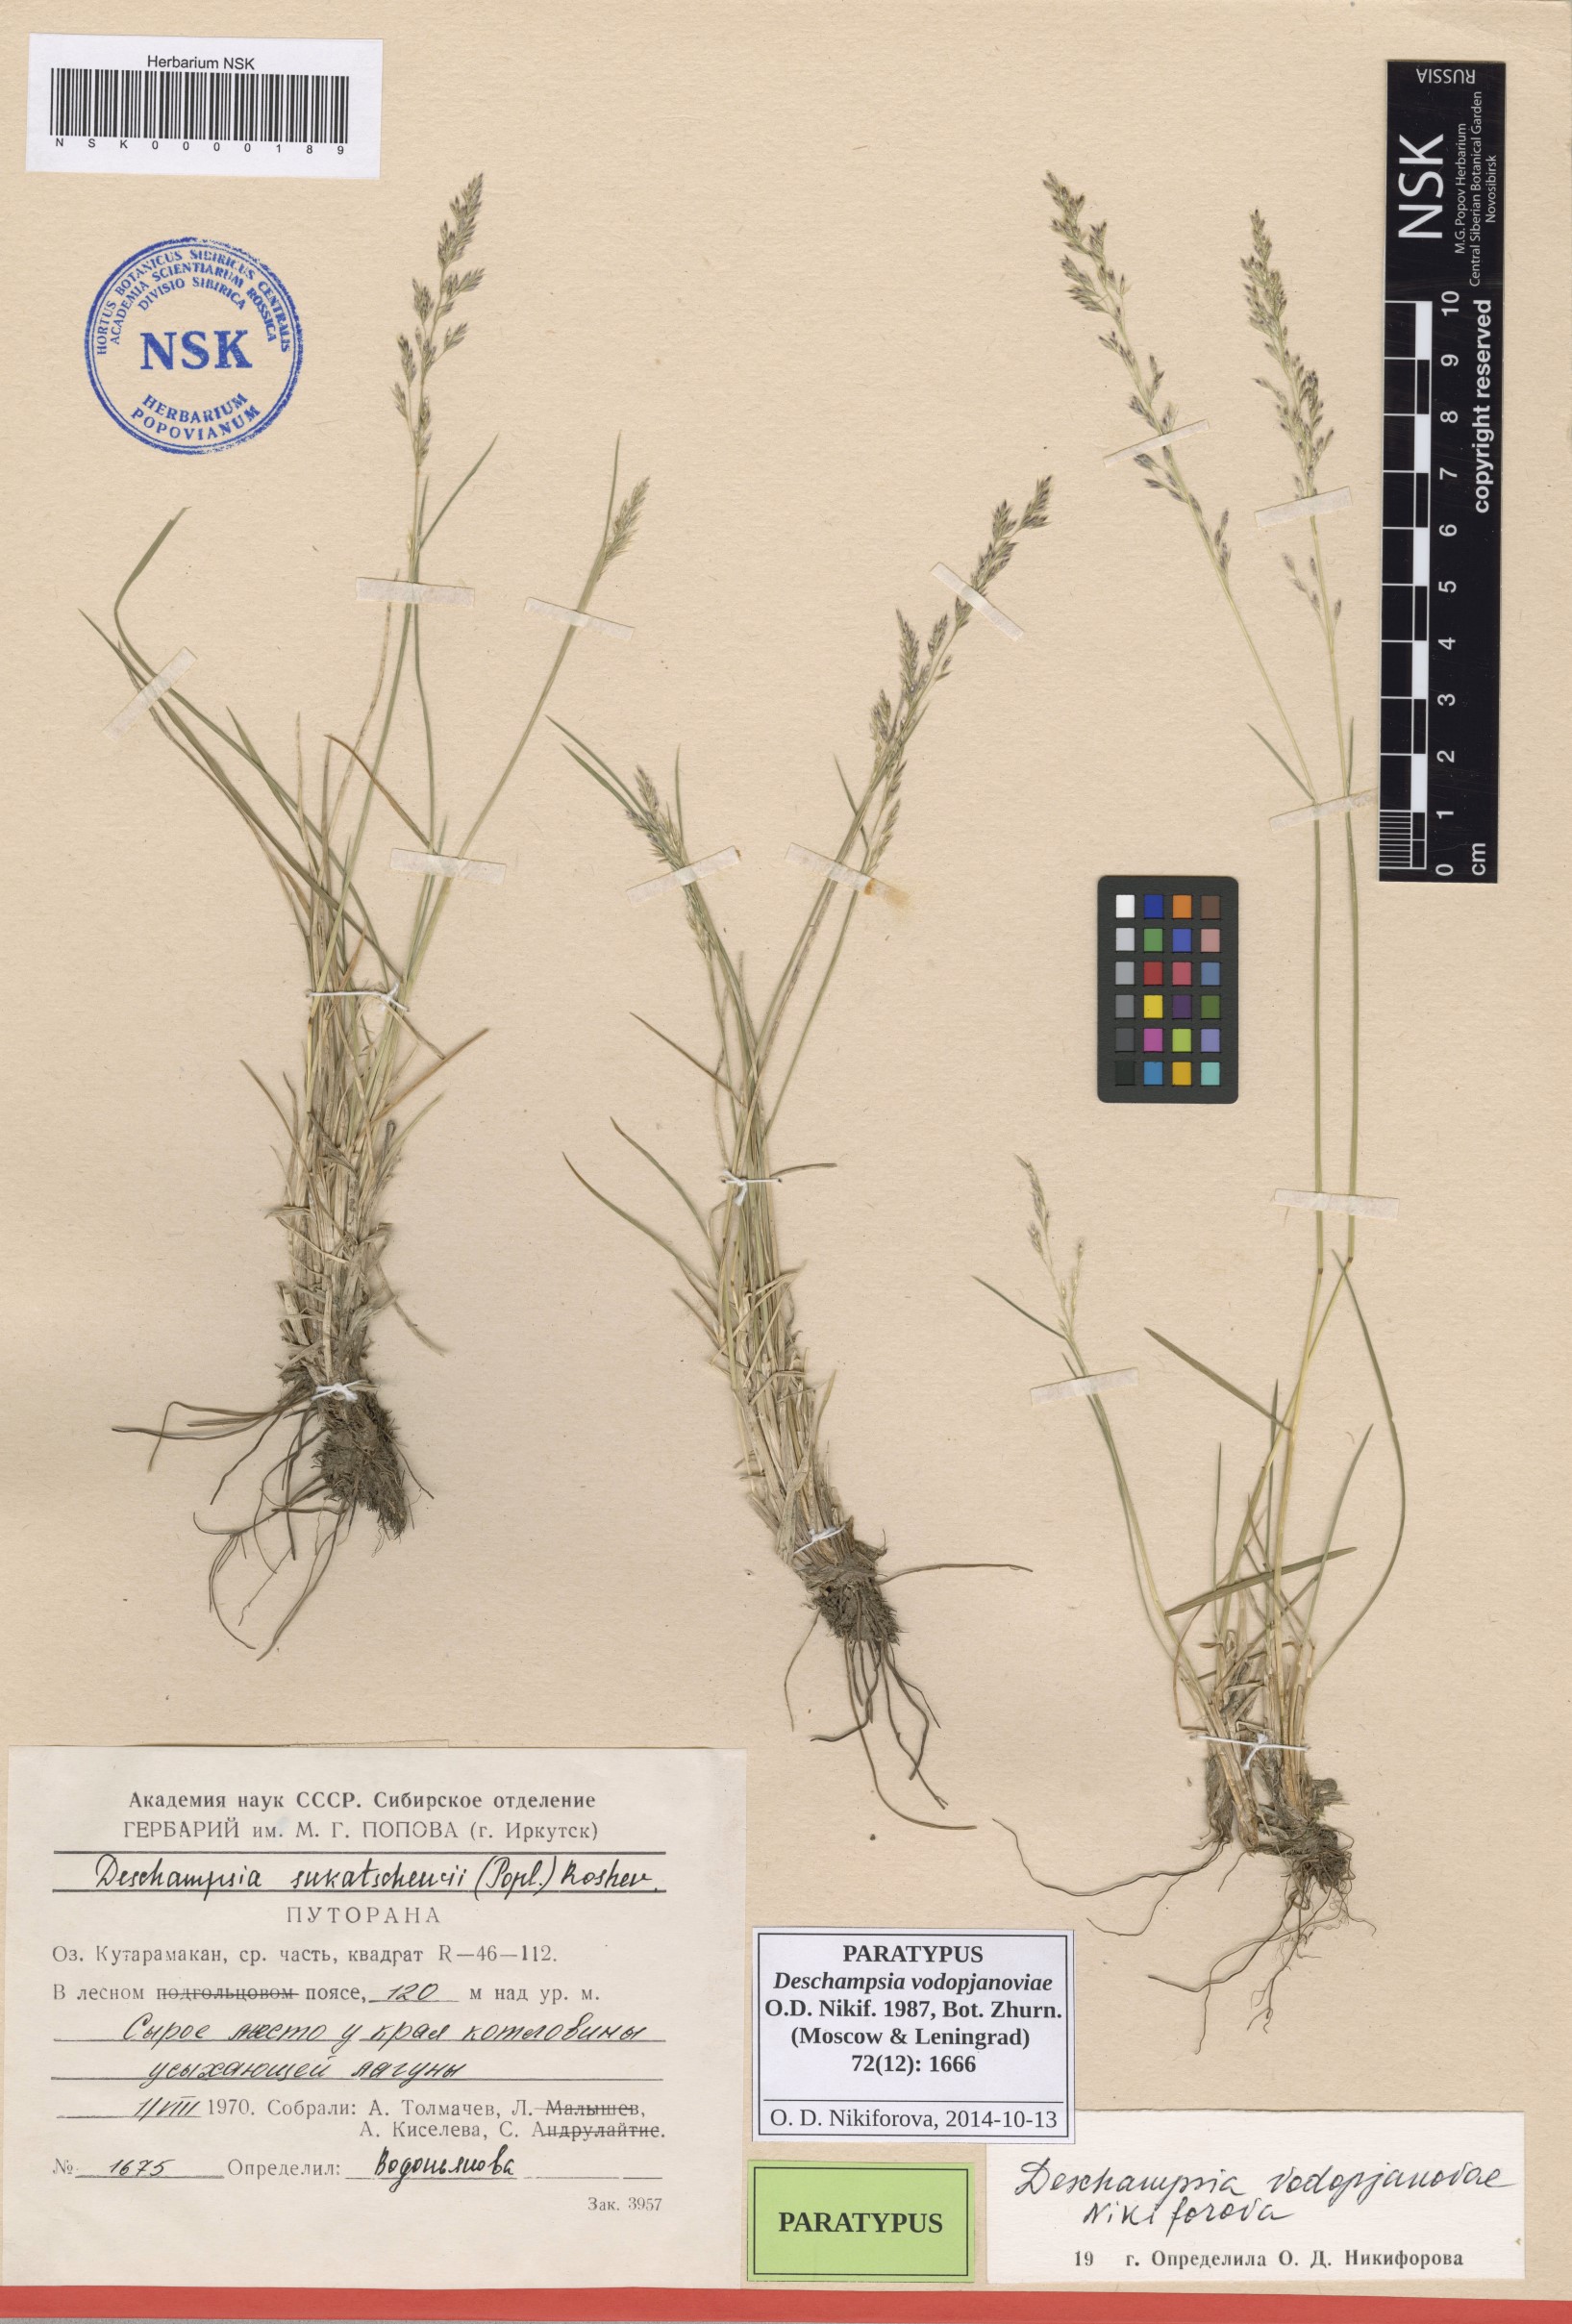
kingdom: Plantae
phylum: Tracheophyta
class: Liliopsida
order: Poales
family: Poaceae
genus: Deschampsia
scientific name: Deschampsia cespitosa
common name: Tufted hair-grass
